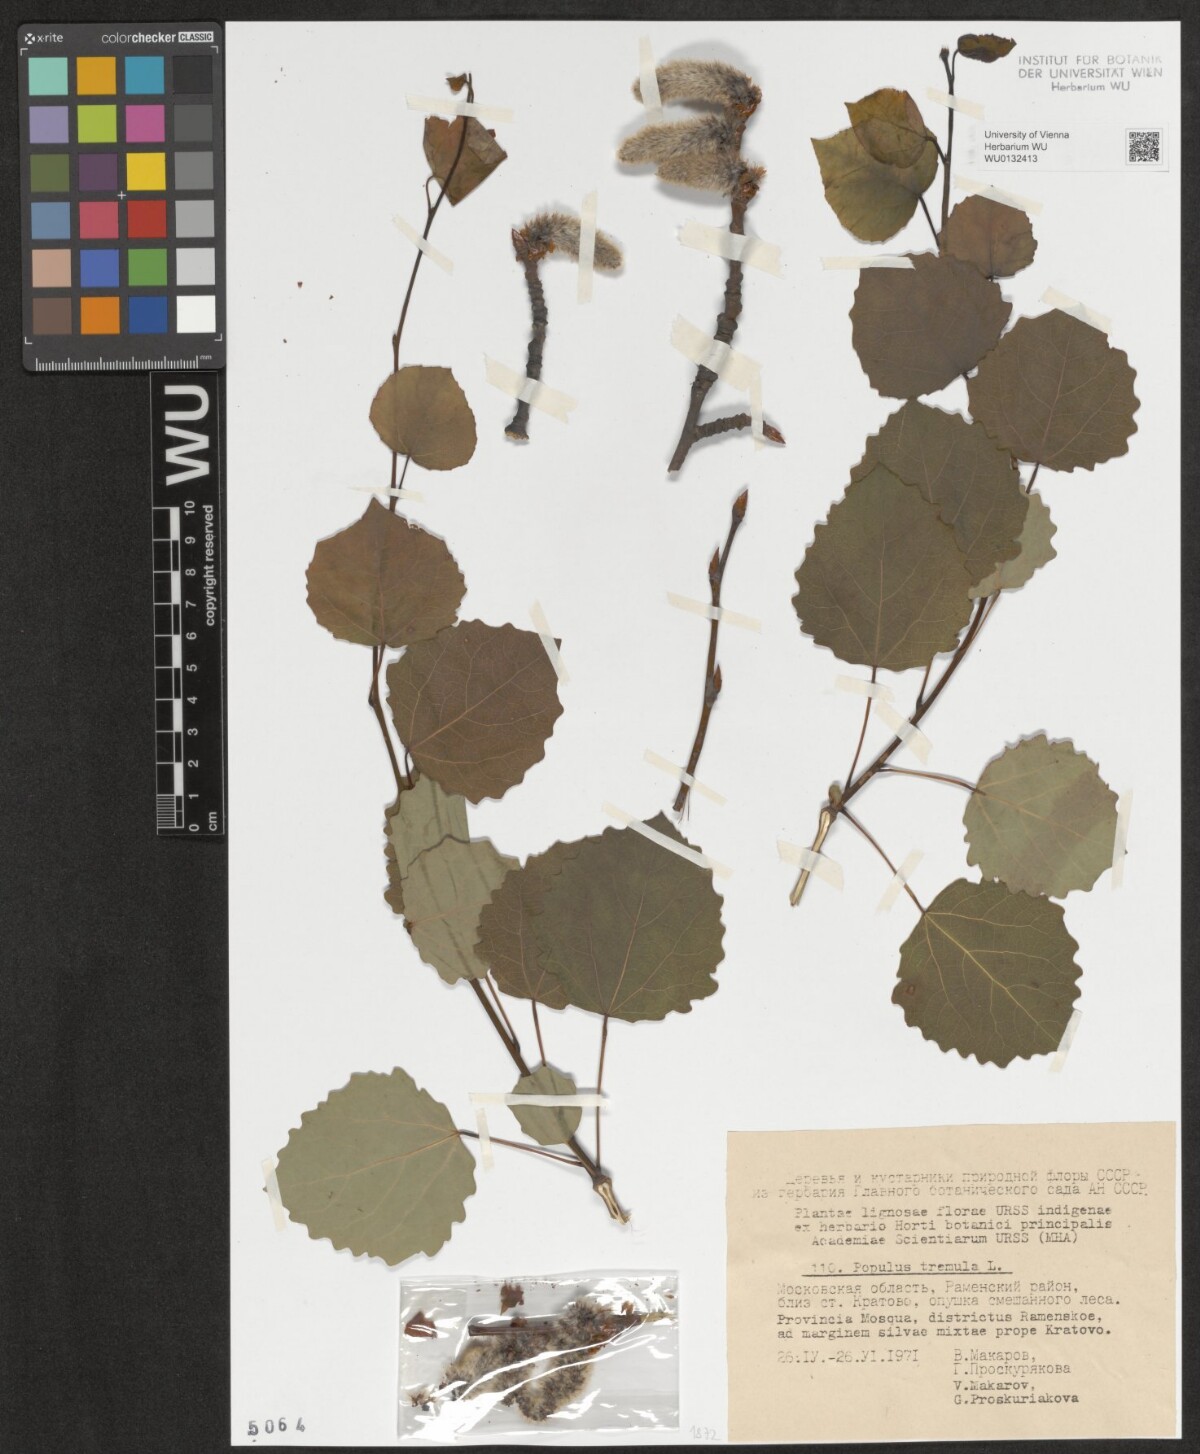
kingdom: Plantae
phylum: Tracheophyta
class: Magnoliopsida
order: Malpighiales
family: Salicaceae
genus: Populus
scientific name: Populus tremula
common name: European aspen
